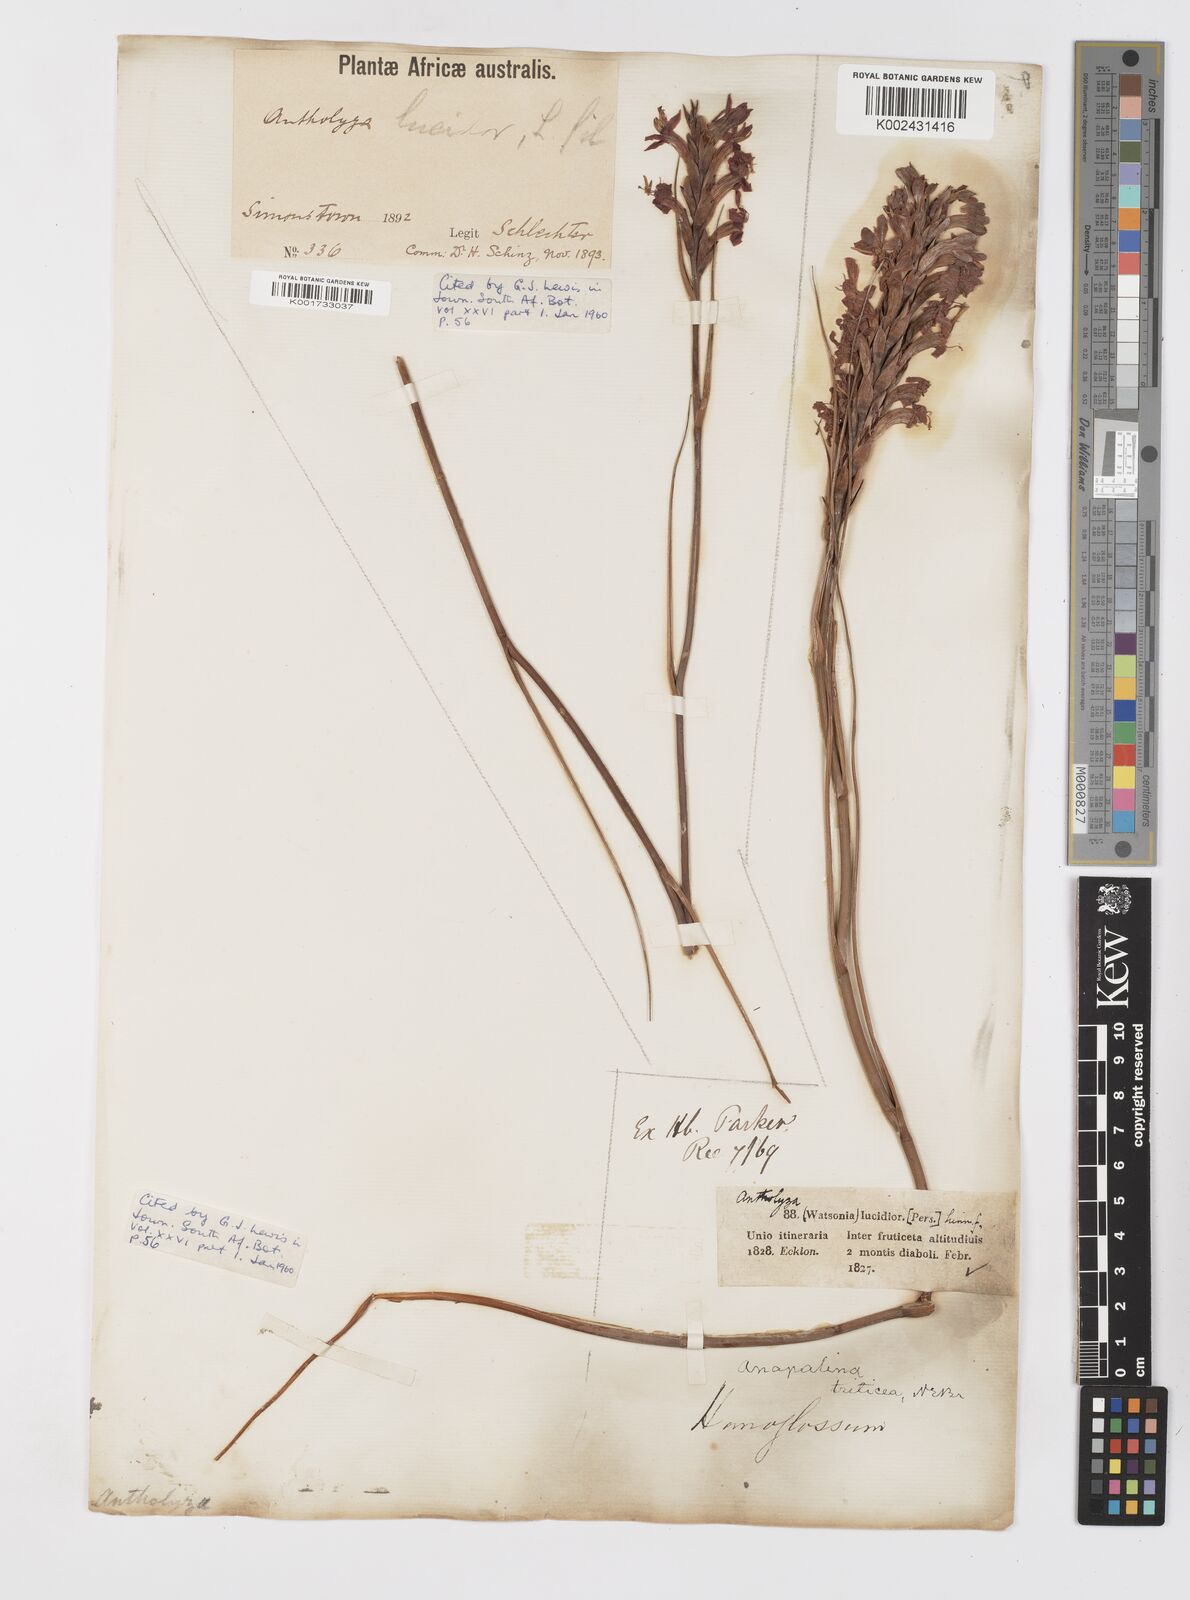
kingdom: Plantae
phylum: Tracheophyta
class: Liliopsida
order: Asparagales
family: Iridaceae
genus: Tritoniopsis
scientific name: Tritoniopsis triticea
